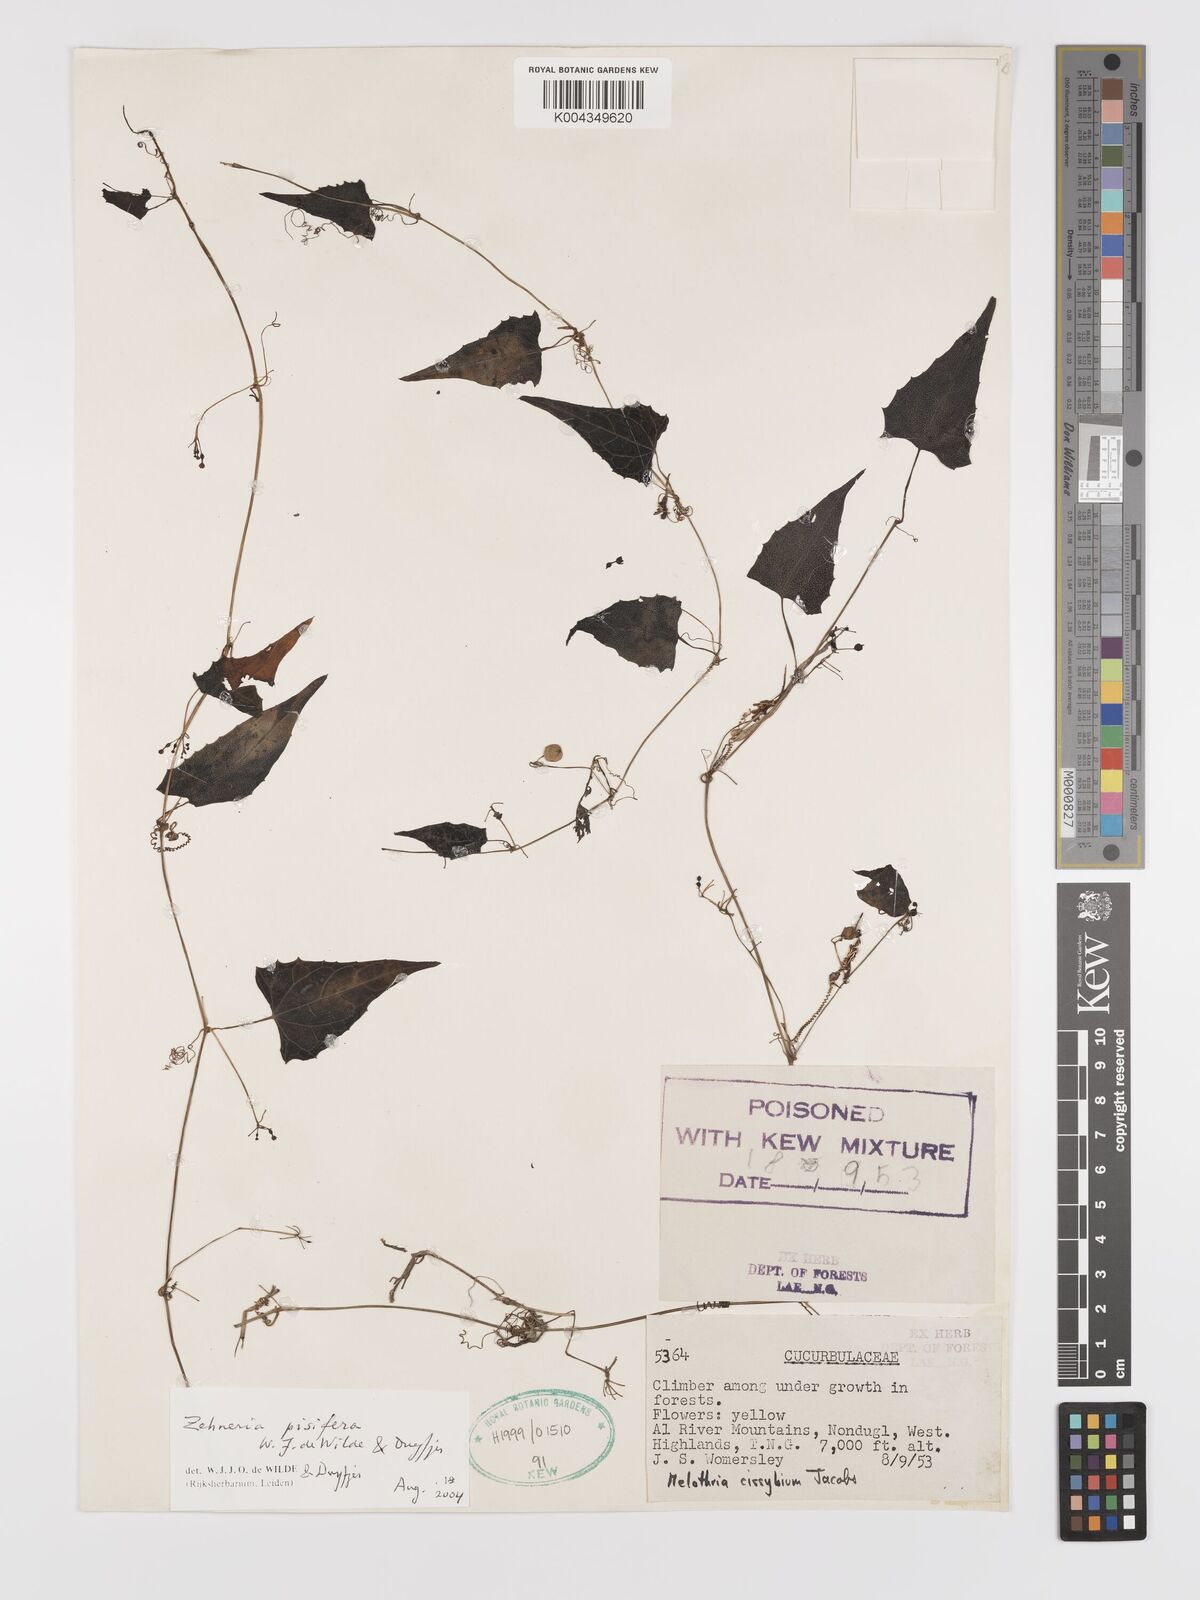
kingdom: Plantae
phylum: Tracheophyta
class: Magnoliopsida
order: Cucurbitales
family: Cucurbitaceae
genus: Zehneria
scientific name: Zehneria pisifera
